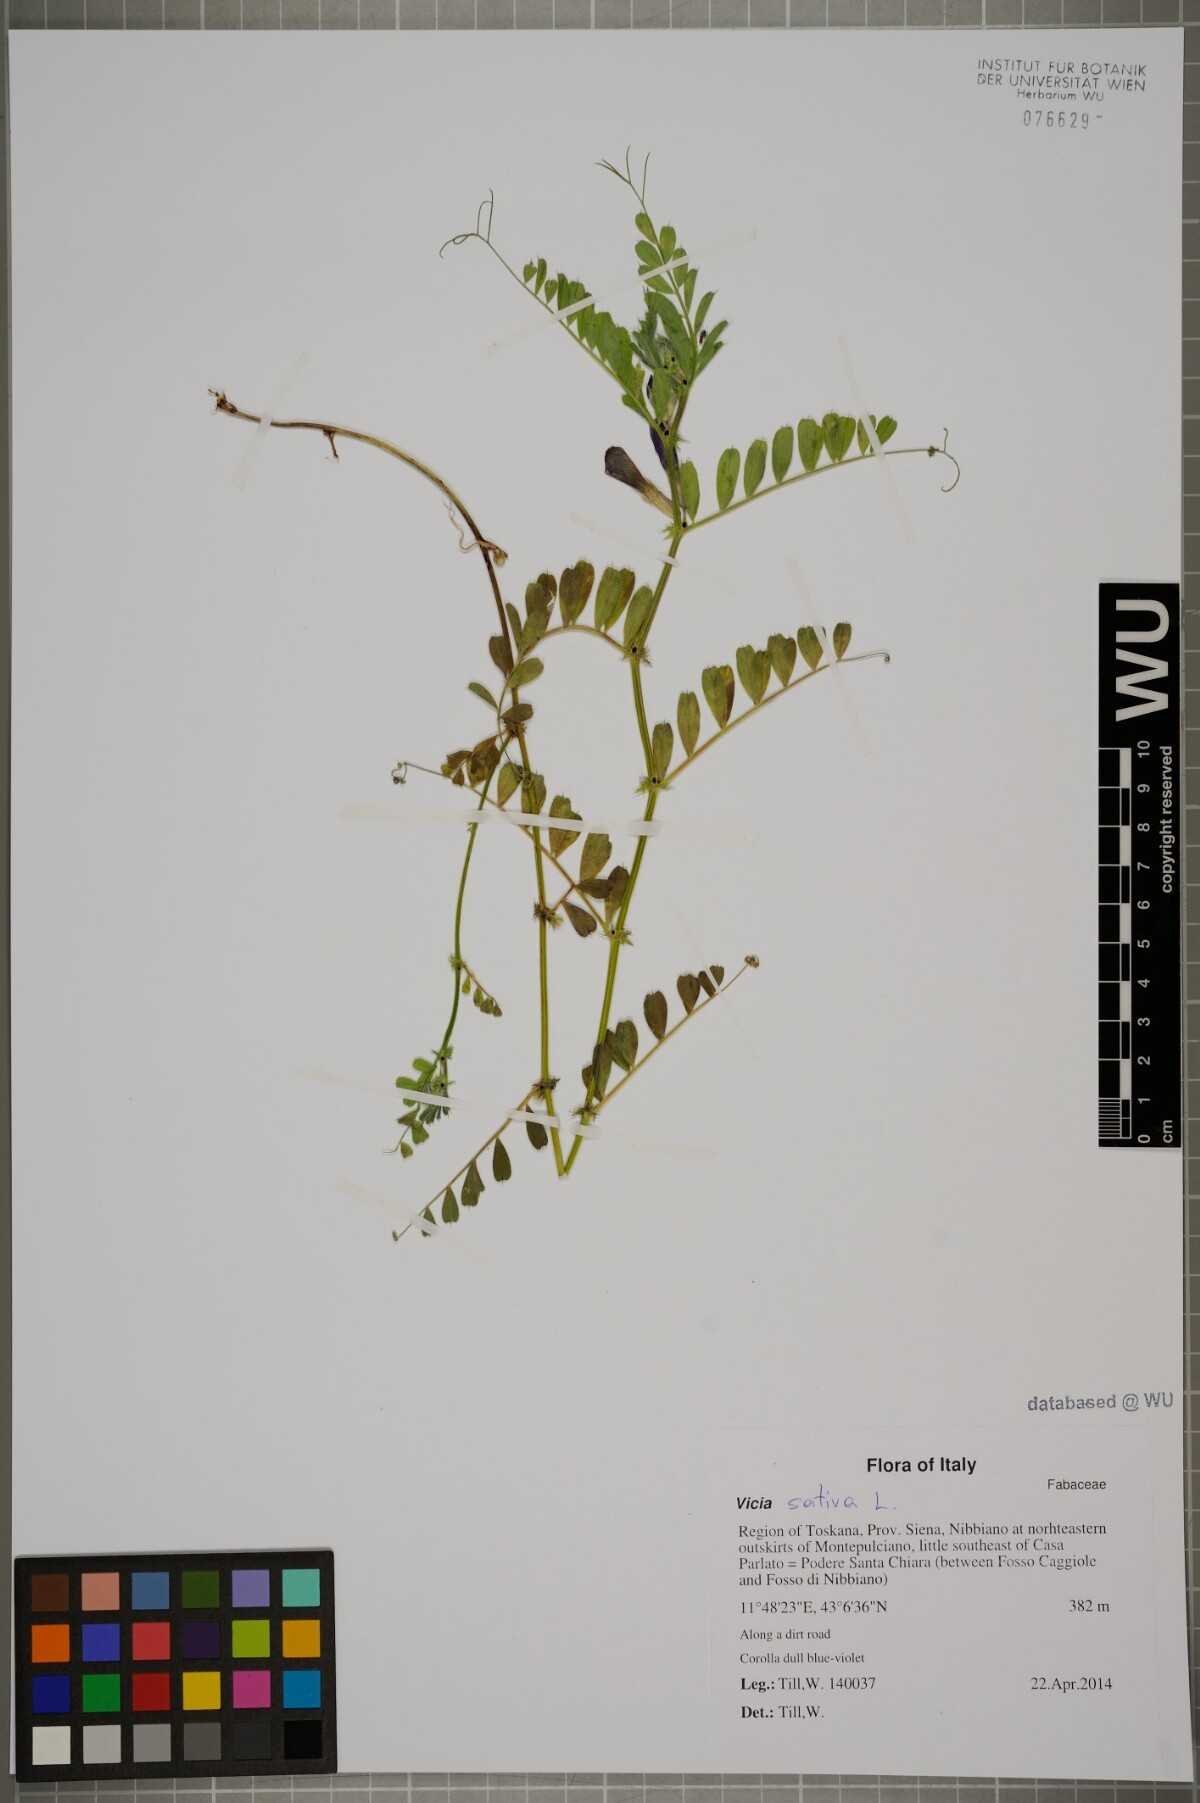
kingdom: Plantae
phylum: Tracheophyta
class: Magnoliopsida
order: Fabales
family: Fabaceae
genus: Vicia
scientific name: Vicia sativa
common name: Garden vetch
